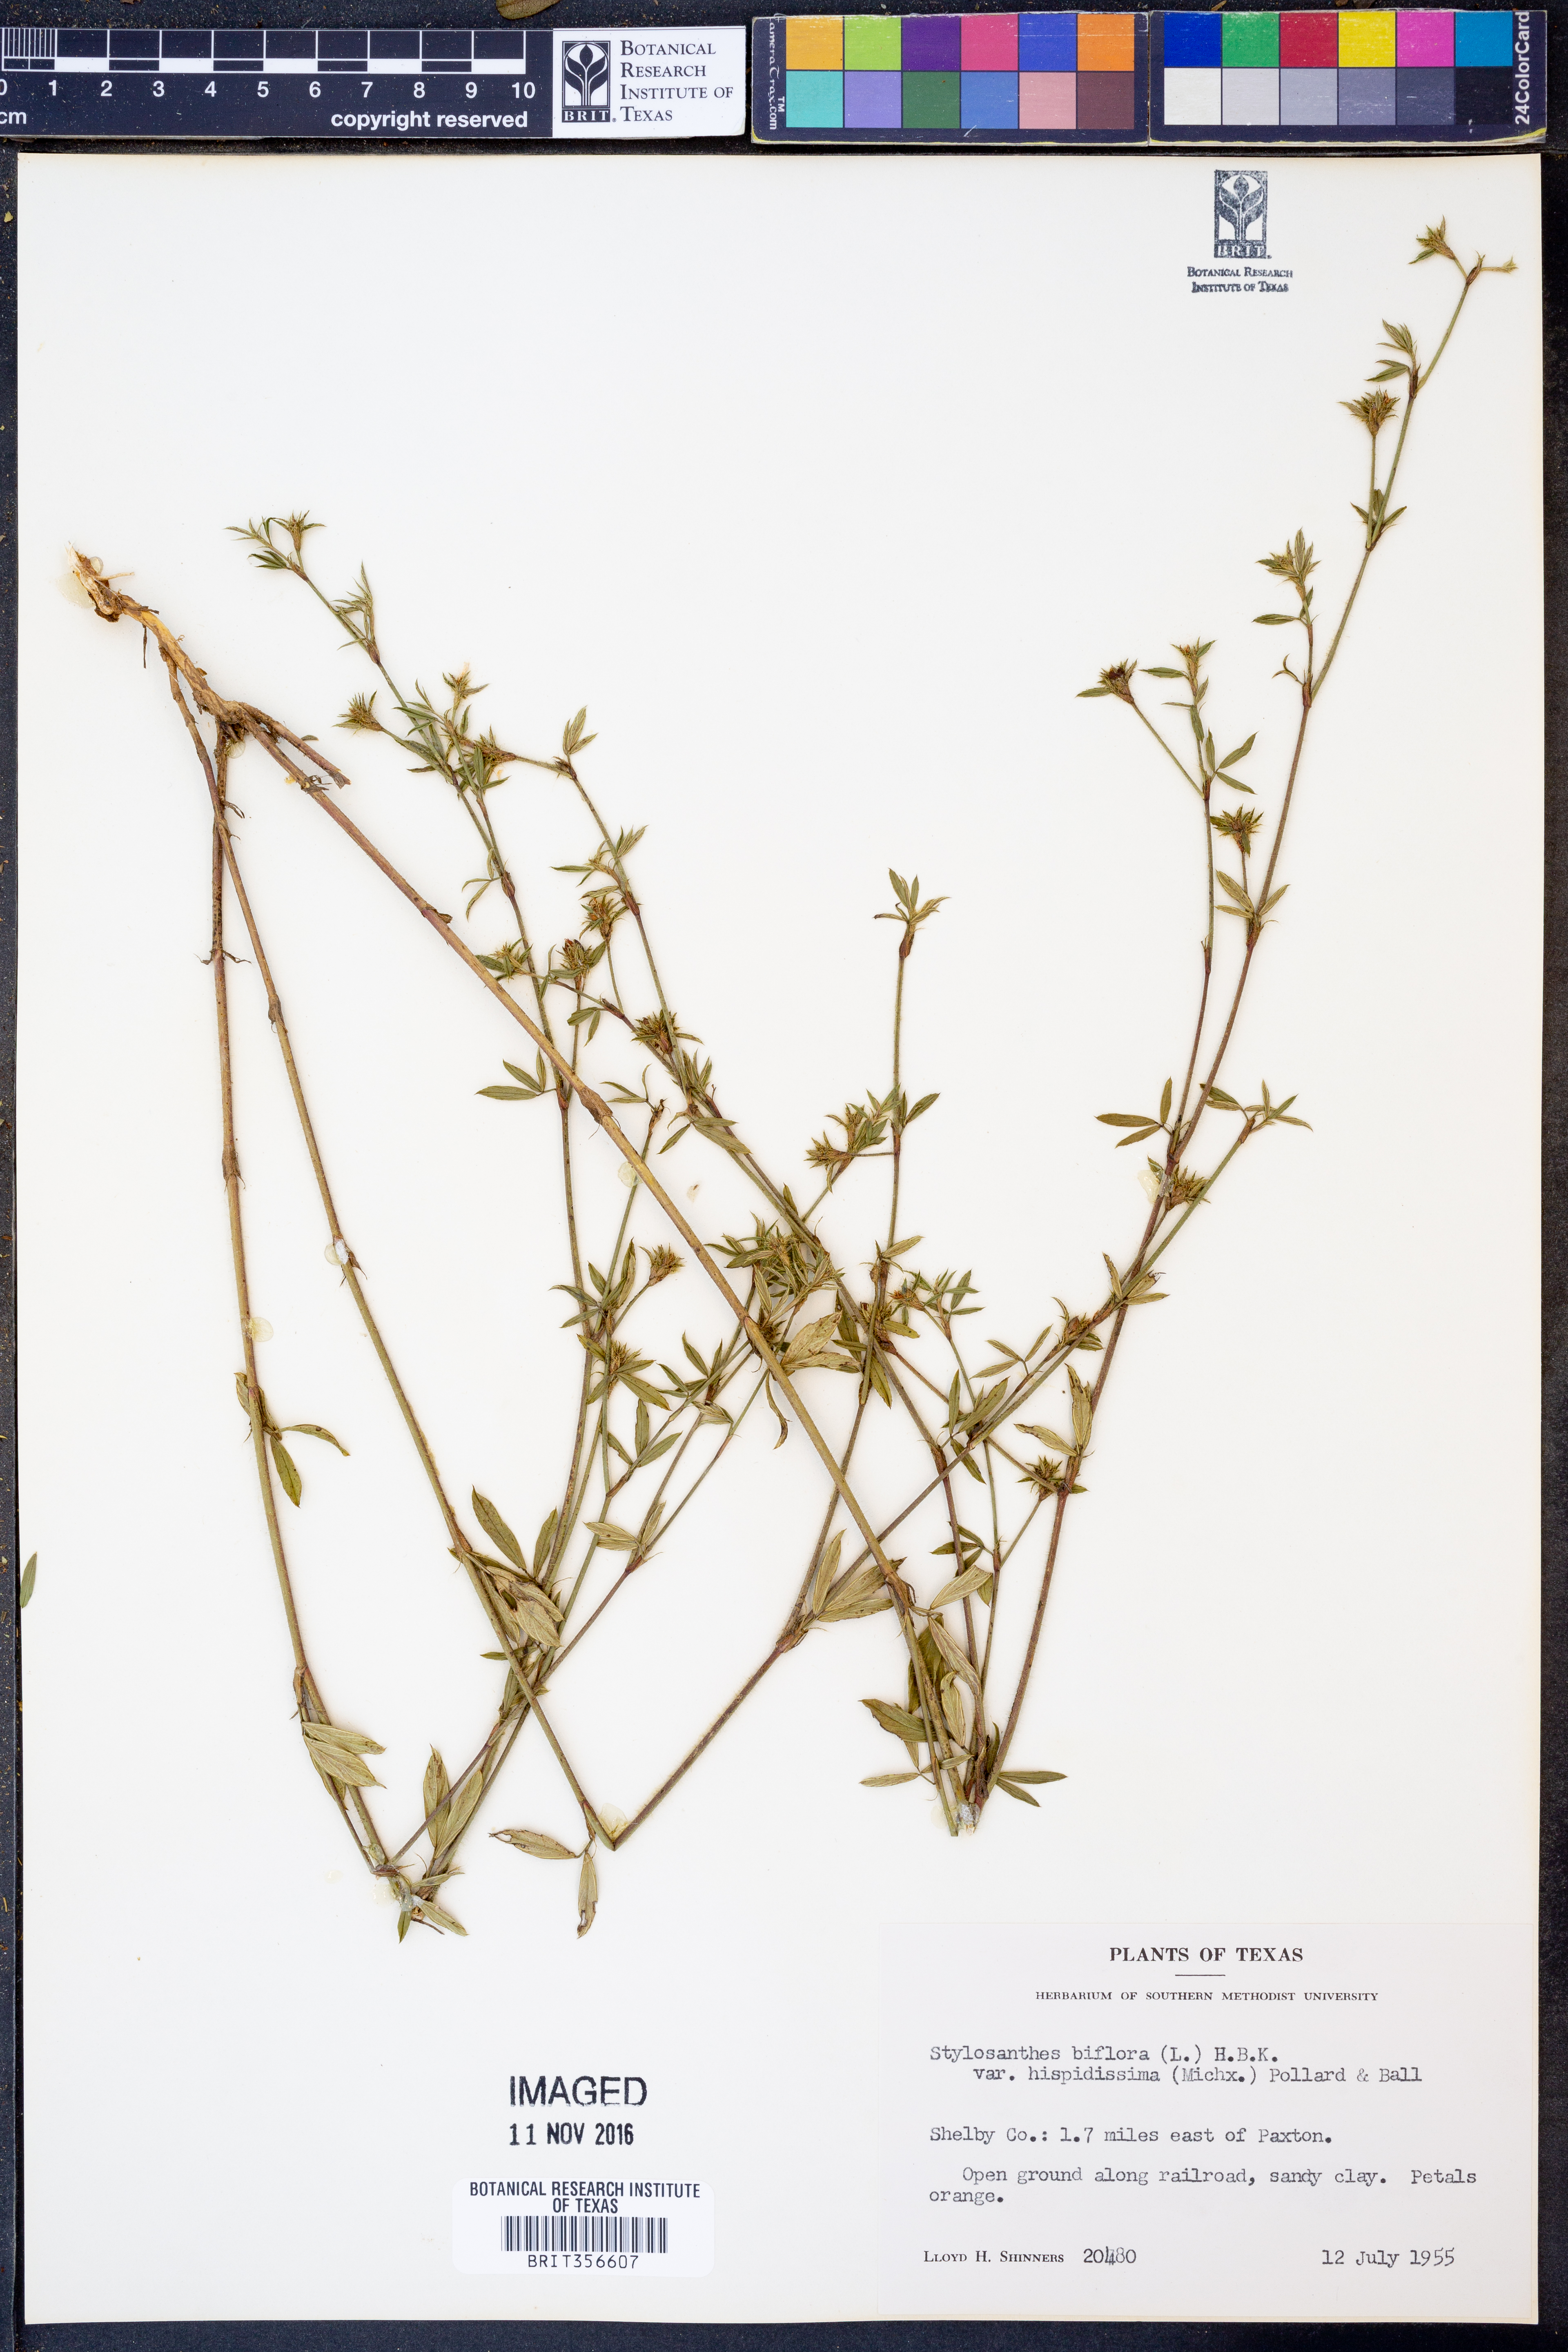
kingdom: Plantae
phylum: Tracheophyta
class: Magnoliopsida
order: Fabales
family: Fabaceae
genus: Stylosanthes
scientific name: Stylosanthes biflora
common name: Two-flower pencil-flower
